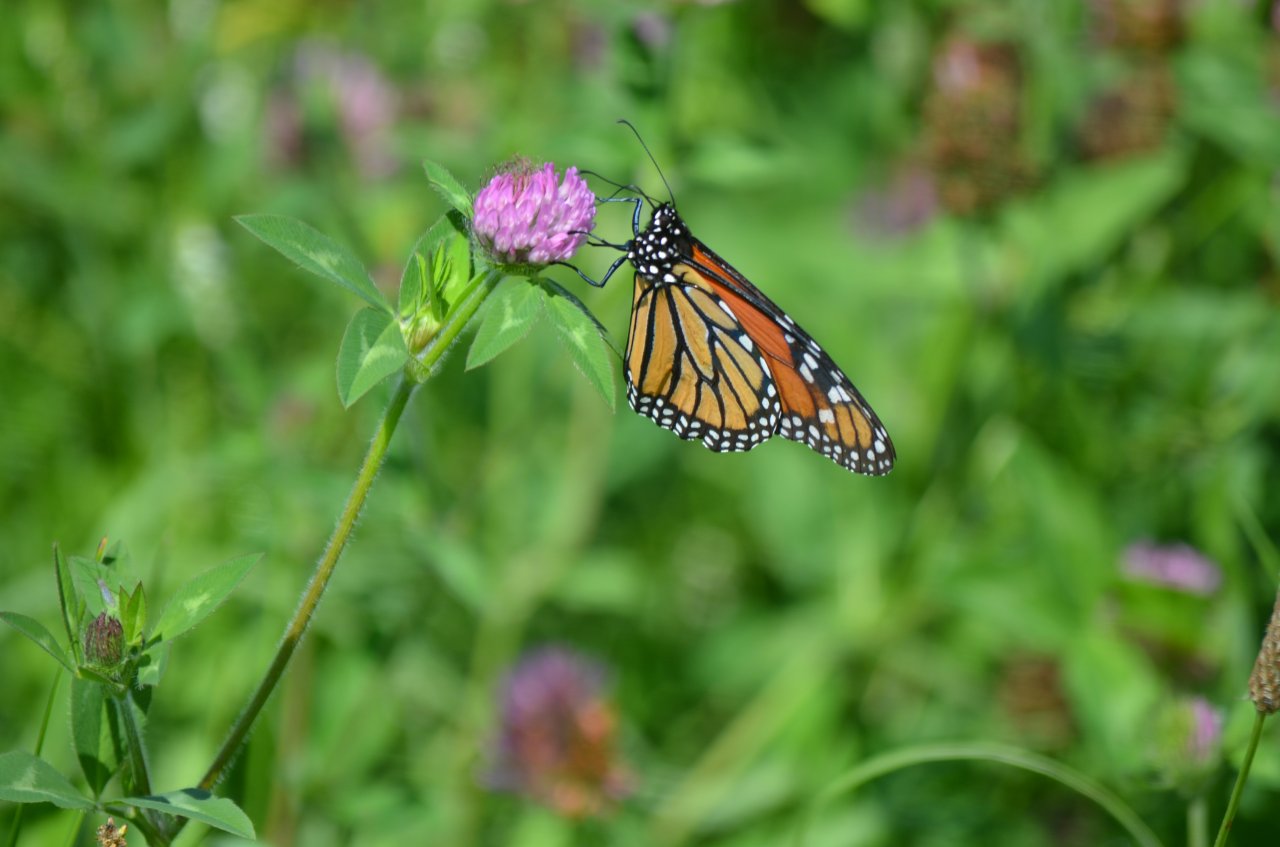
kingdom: Animalia
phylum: Arthropoda
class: Insecta
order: Lepidoptera
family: Nymphalidae
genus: Danaus
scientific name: Danaus plexippus
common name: Monarch
